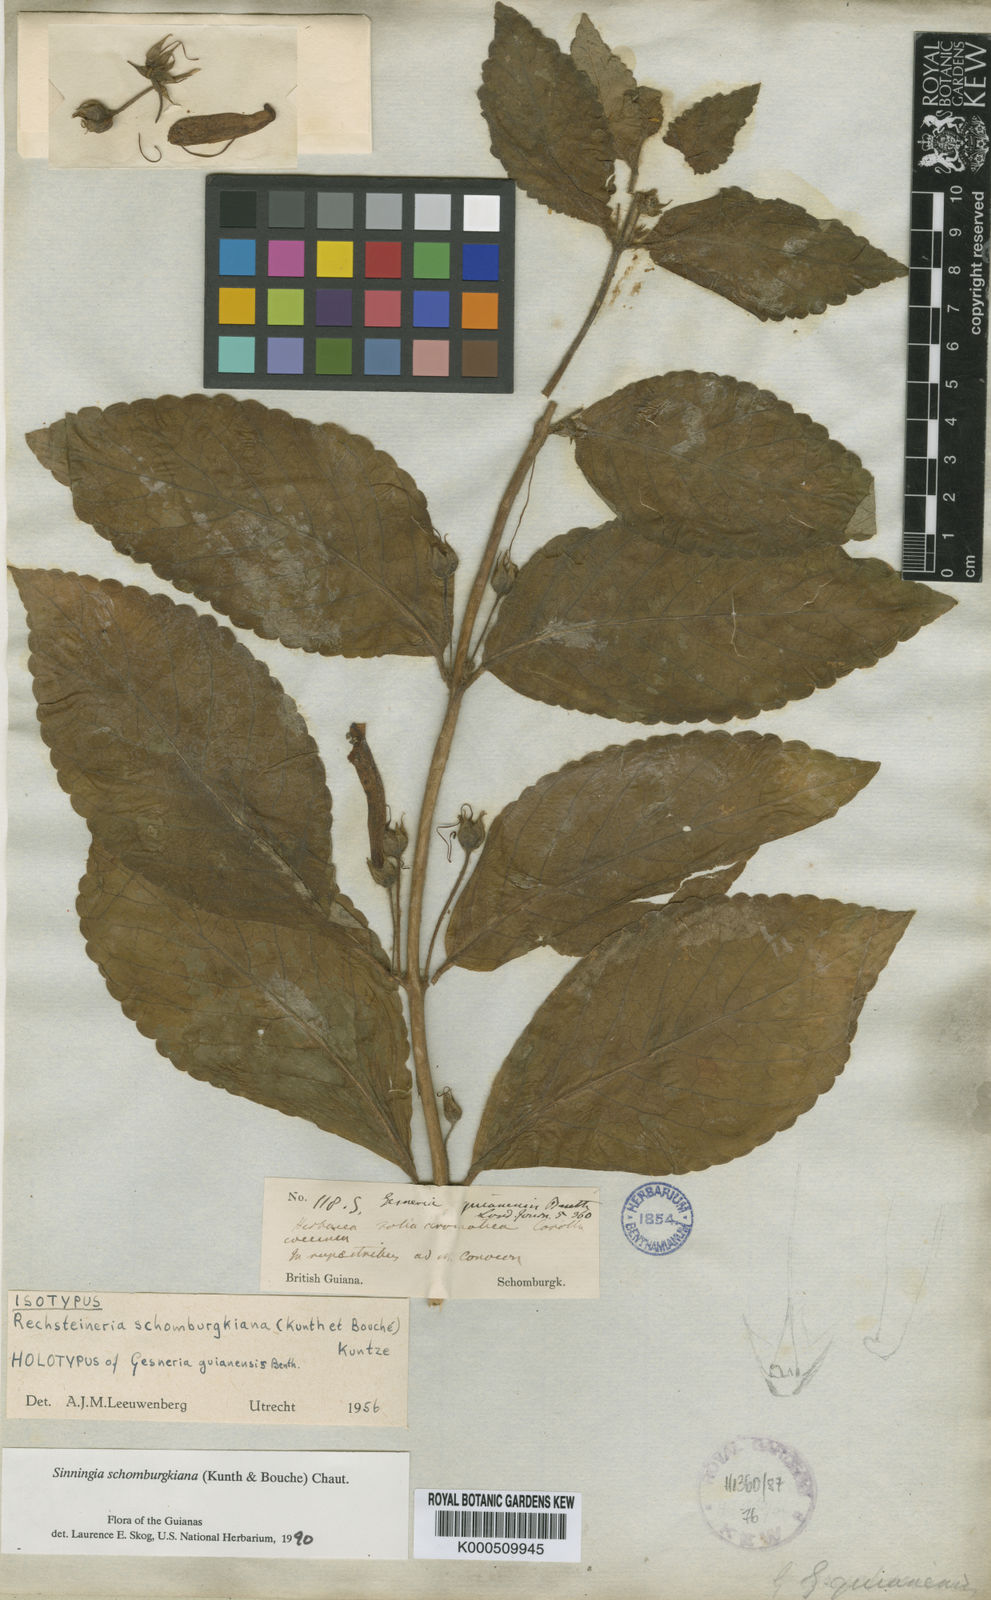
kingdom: Plantae
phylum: Tracheophyta
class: Magnoliopsida
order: Lamiales
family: Gesneriaceae
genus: Sinningia
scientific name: Sinningia
